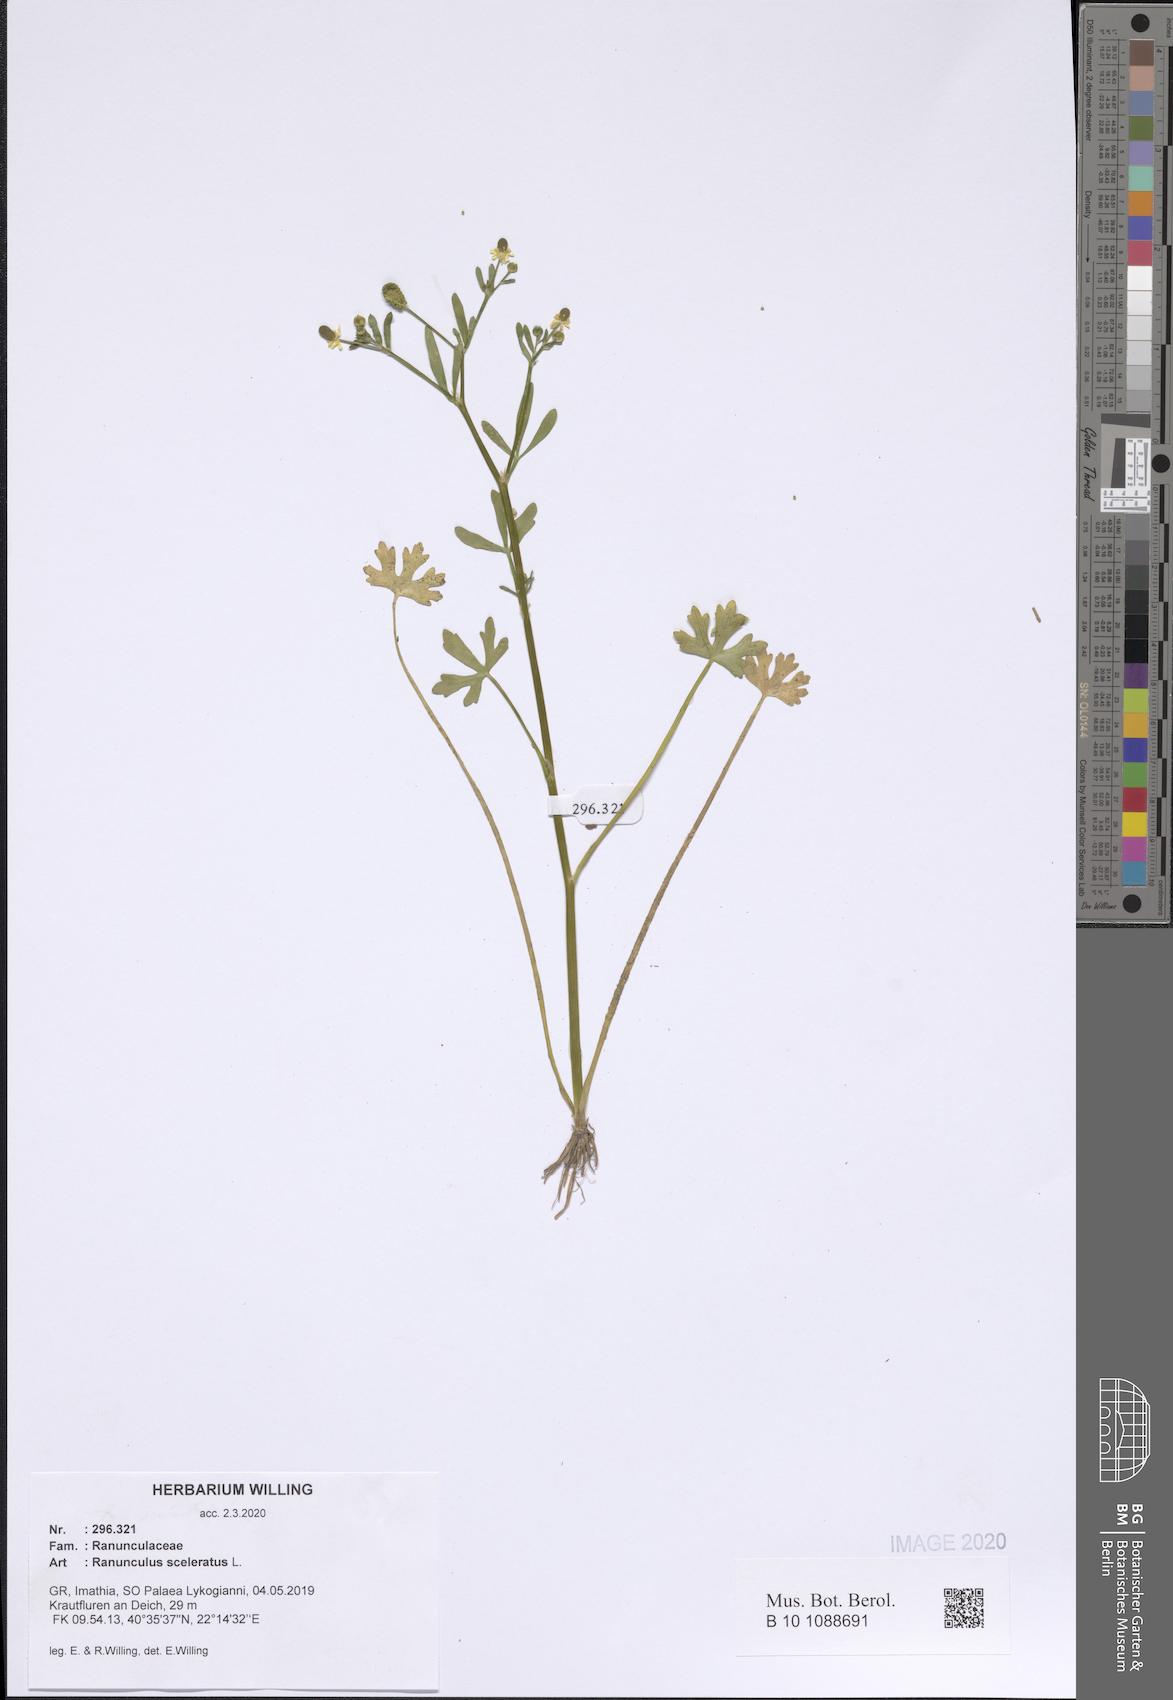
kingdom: Plantae
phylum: Tracheophyta
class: Magnoliopsida
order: Ranunculales
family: Ranunculaceae
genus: Ranunculus
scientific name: Ranunculus sceleratus
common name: Celery-leaved buttercup
